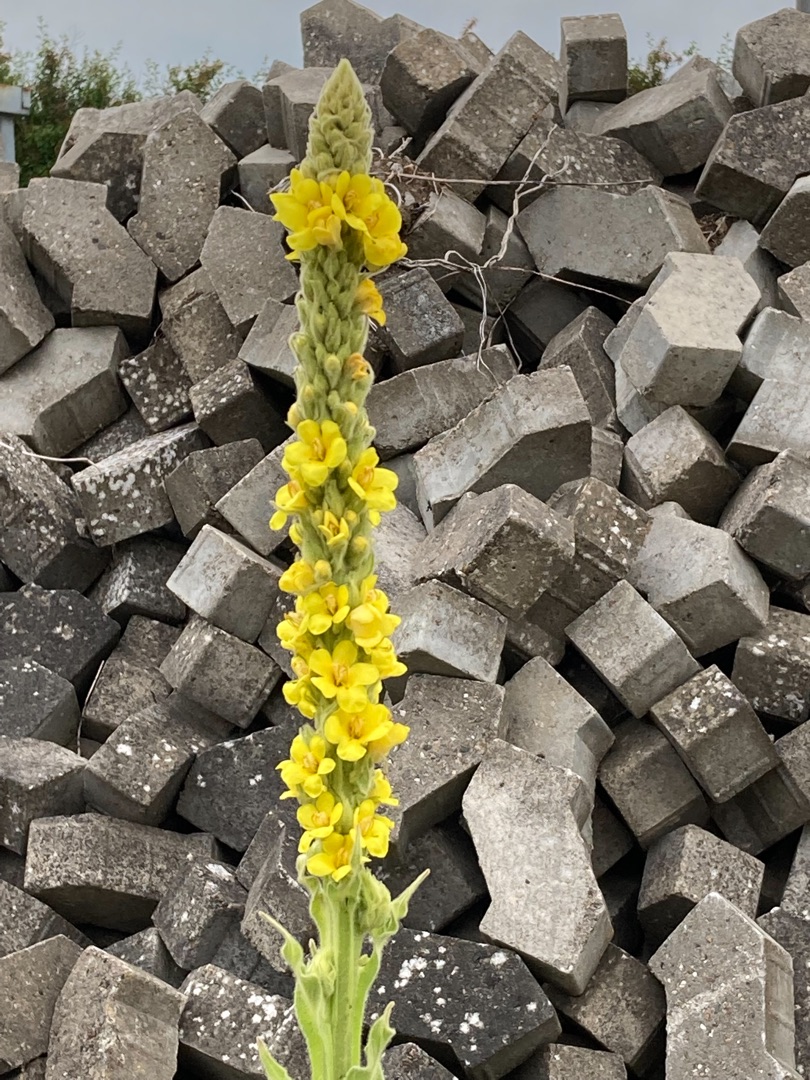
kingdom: Plantae
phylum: Tracheophyta
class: Magnoliopsida
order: Lamiales
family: Scrophulariaceae
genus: Verbascum
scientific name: Verbascum thapsus
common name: Filtbladet kongelys
